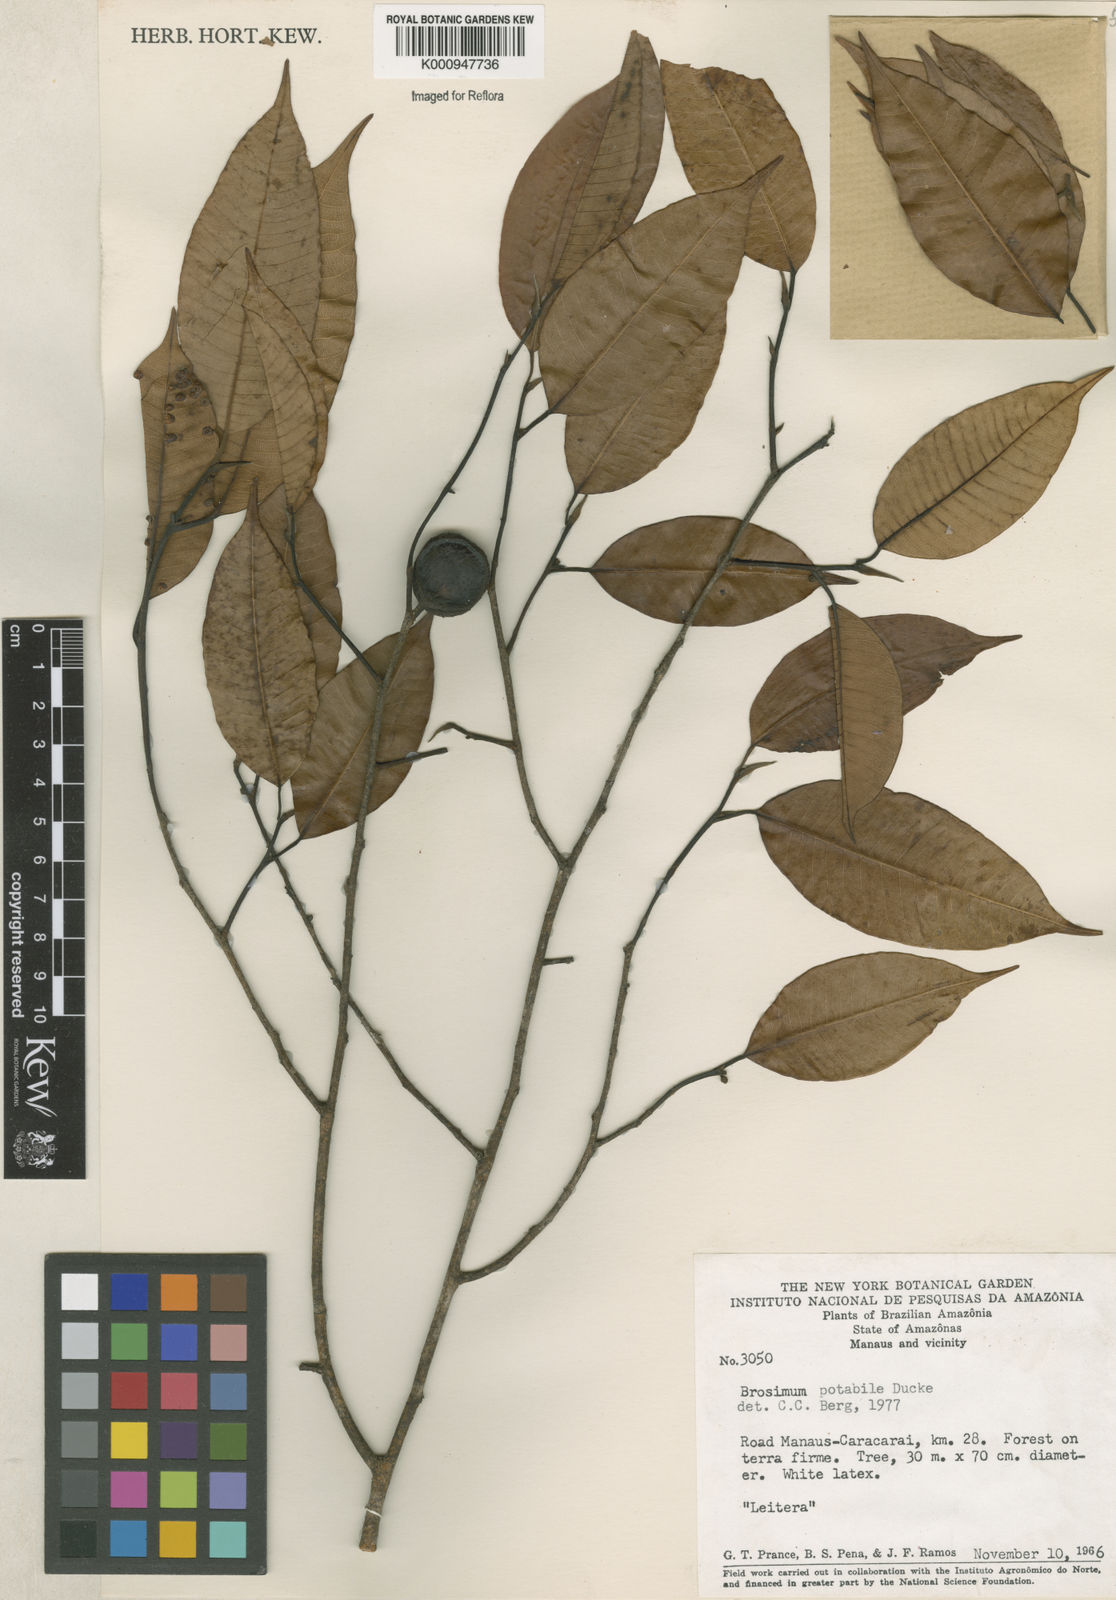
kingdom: Plantae
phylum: Tracheophyta
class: Magnoliopsida
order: Rosales
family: Moraceae
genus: Brosimum
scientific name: Brosimum potabile
